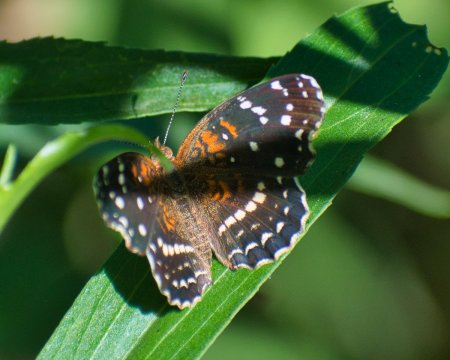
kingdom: Animalia
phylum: Arthropoda
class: Insecta
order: Lepidoptera
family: Nymphalidae
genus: Anthanassa
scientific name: Anthanassa texana
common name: Texan Crescent
